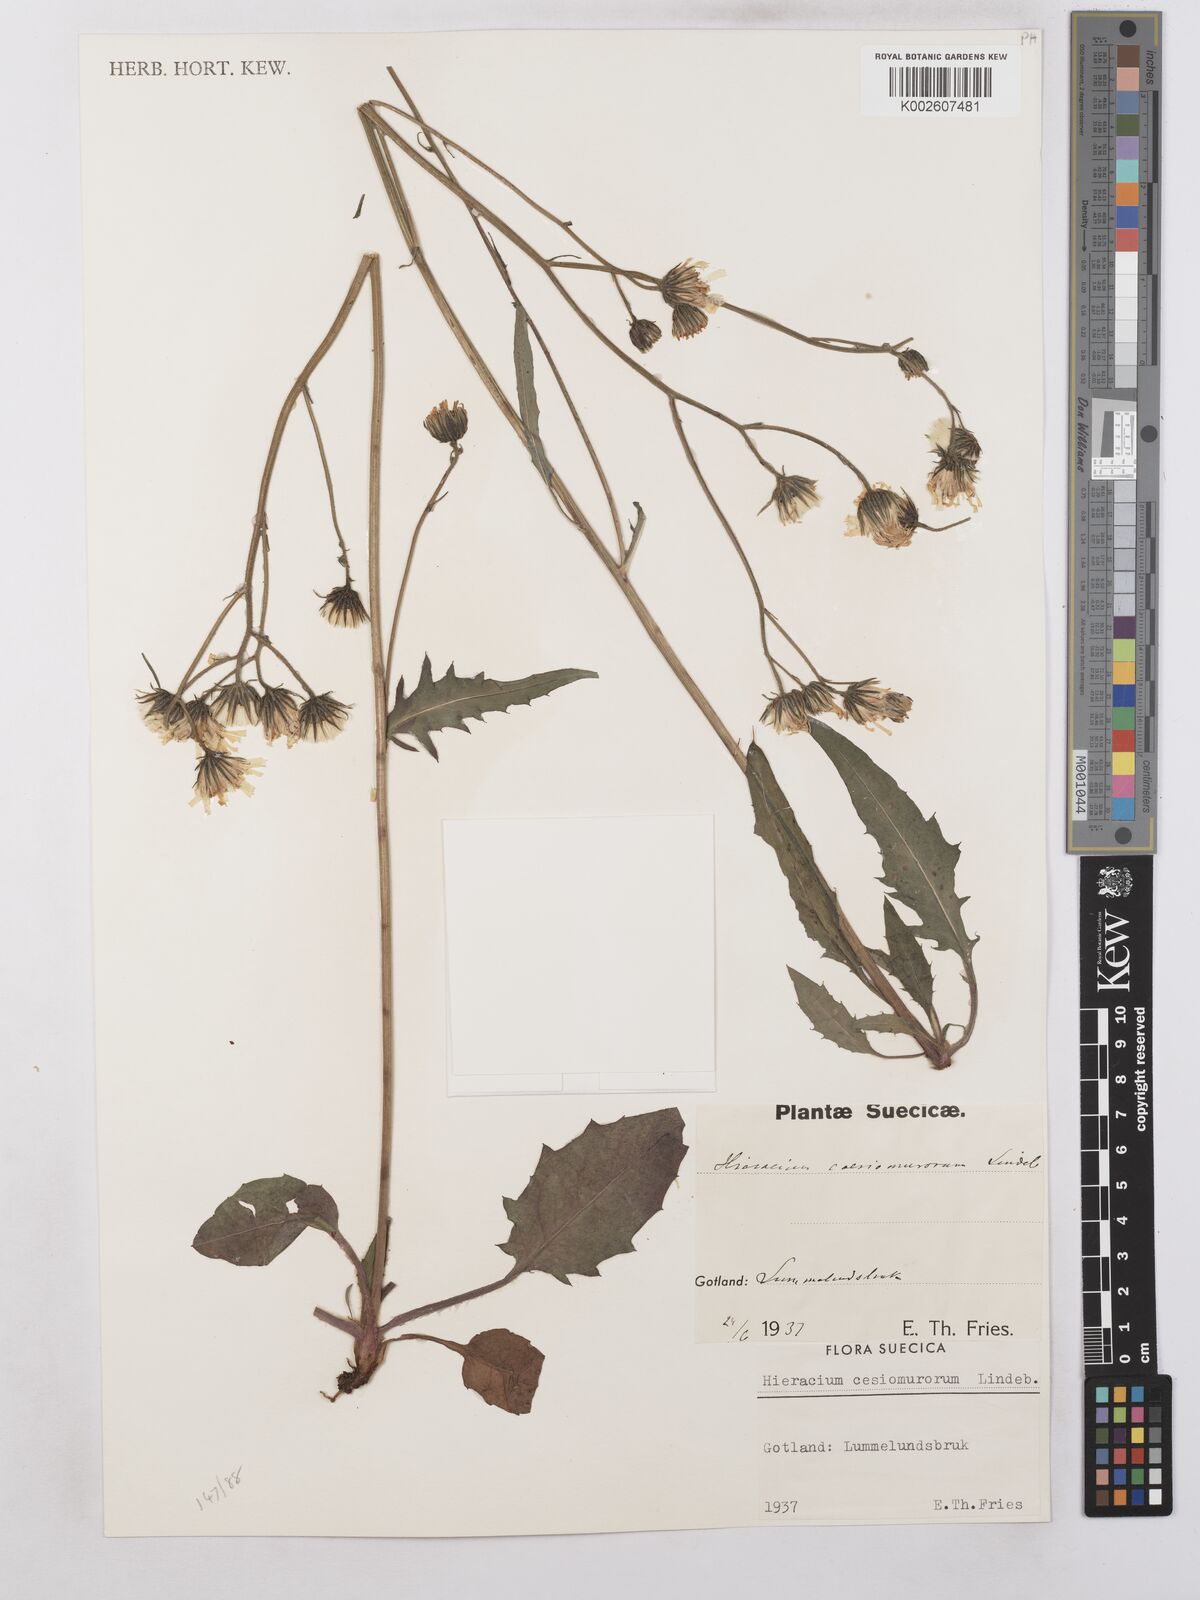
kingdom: Plantae
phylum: Tracheophyta
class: Magnoliopsida
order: Asterales
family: Asteraceae
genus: Hieracium
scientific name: Hieracium caesium
